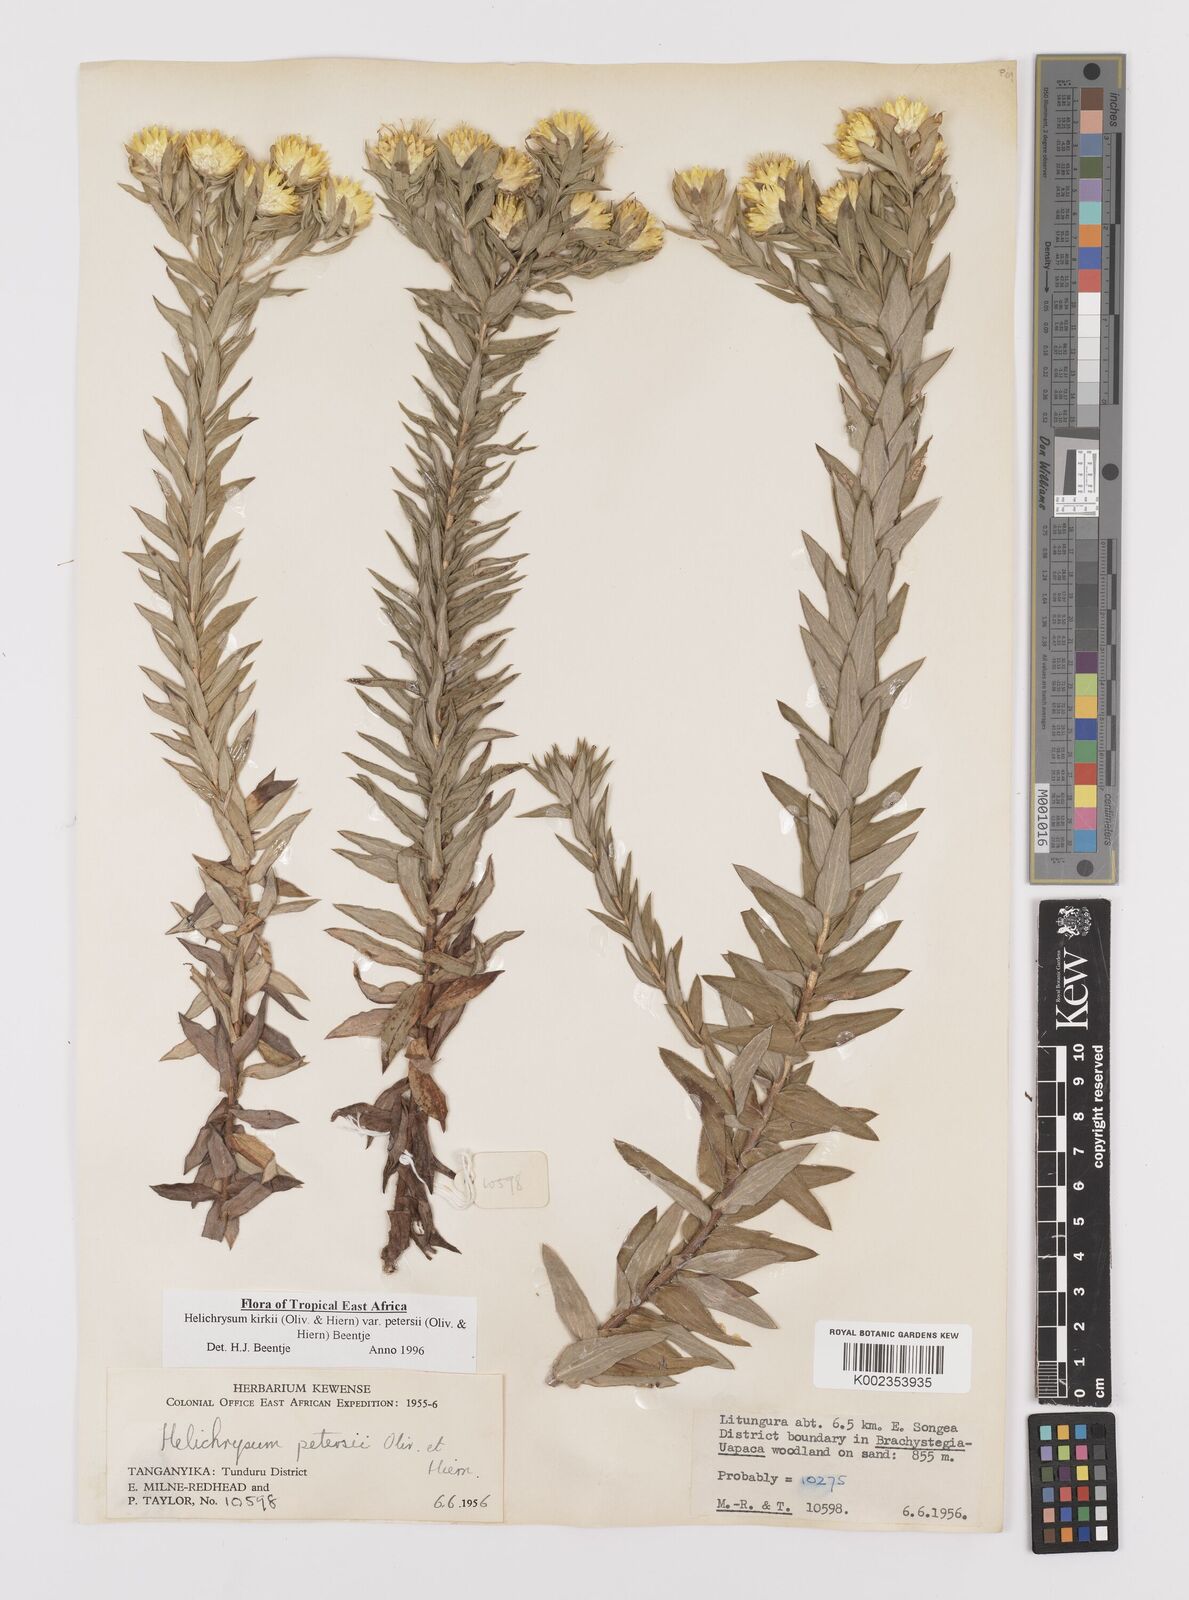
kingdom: Plantae
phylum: Tracheophyta
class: Magnoliopsida
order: Asterales
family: Asteraceae
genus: Helichrysum
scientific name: Helichrysum kirkii
